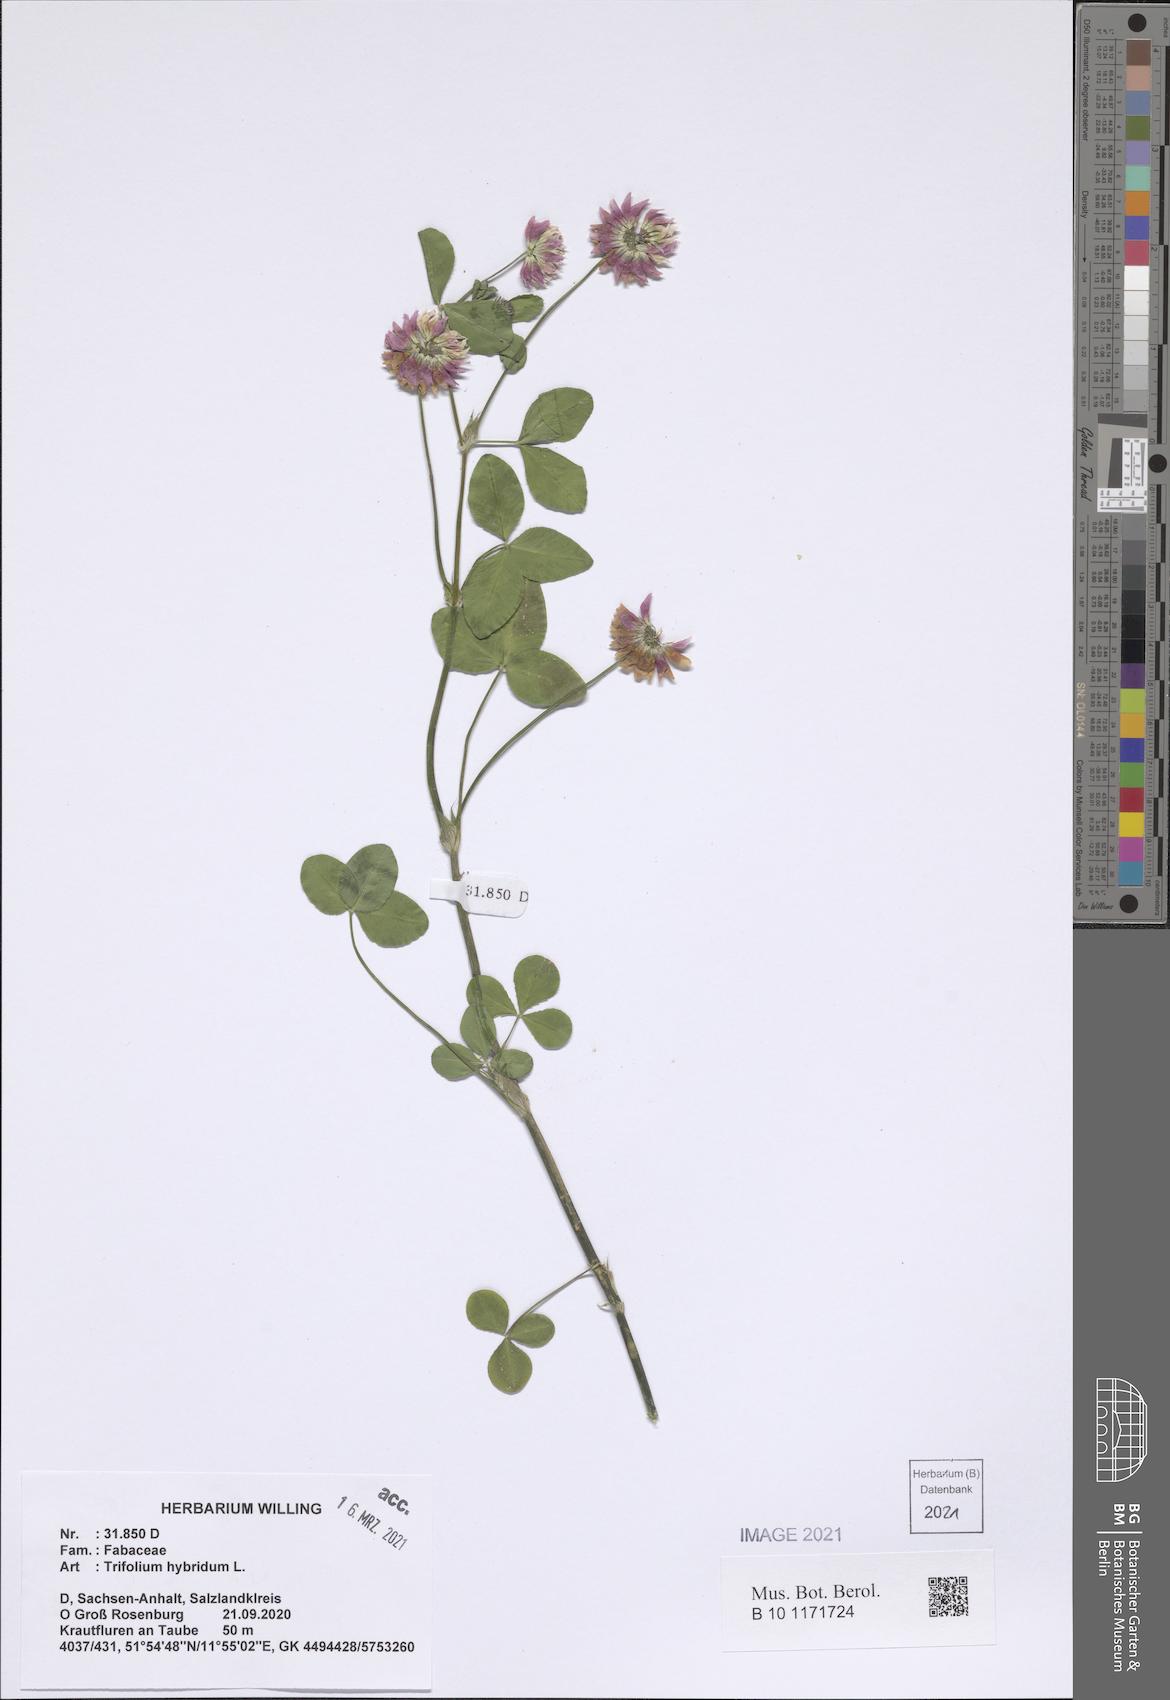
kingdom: Plantae
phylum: Tracheophyta
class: Magnoliopsida
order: Fabales
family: Fabaceae
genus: Trifolium
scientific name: Trifolium hybridum
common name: Alsike clover
